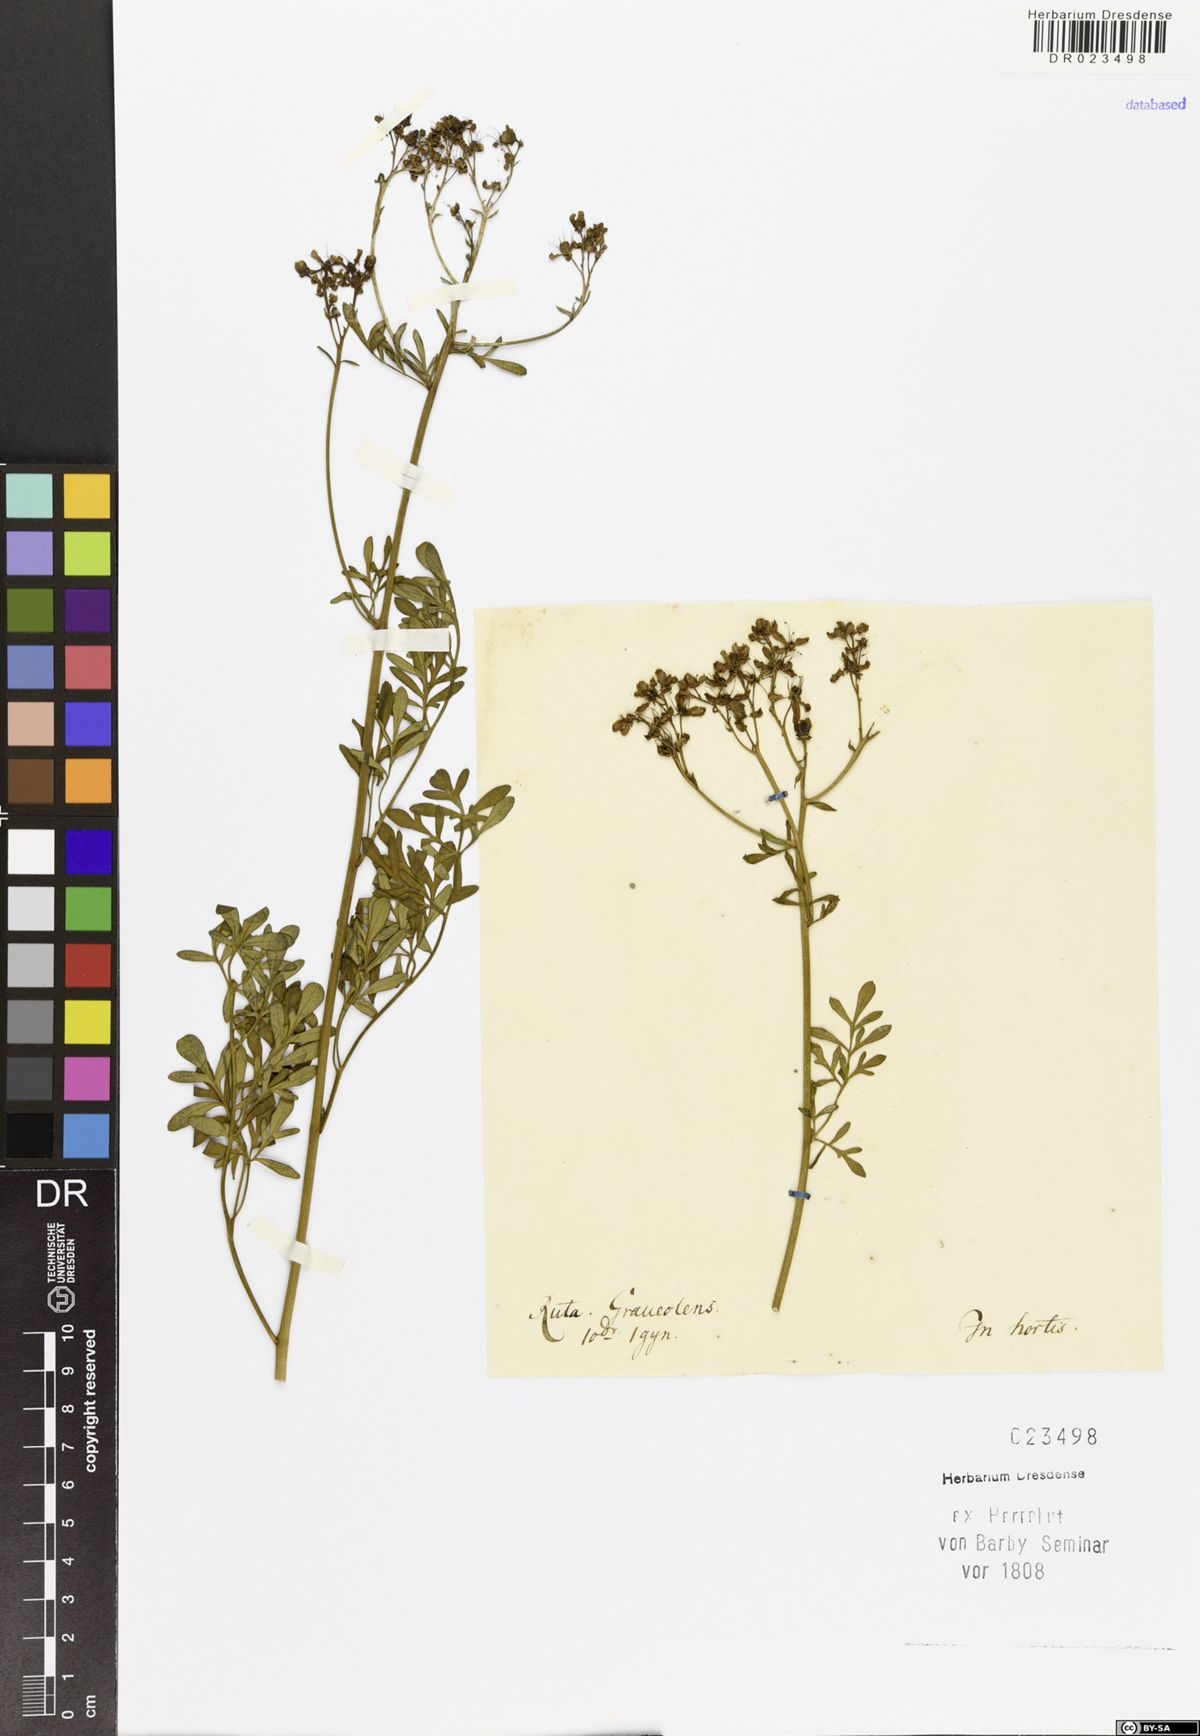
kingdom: Plantae
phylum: Tracheophyta
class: Magnoliopsida
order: Sapindales
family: Rutaceae
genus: Ruta
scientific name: Ruta graveolens
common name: Common rue
